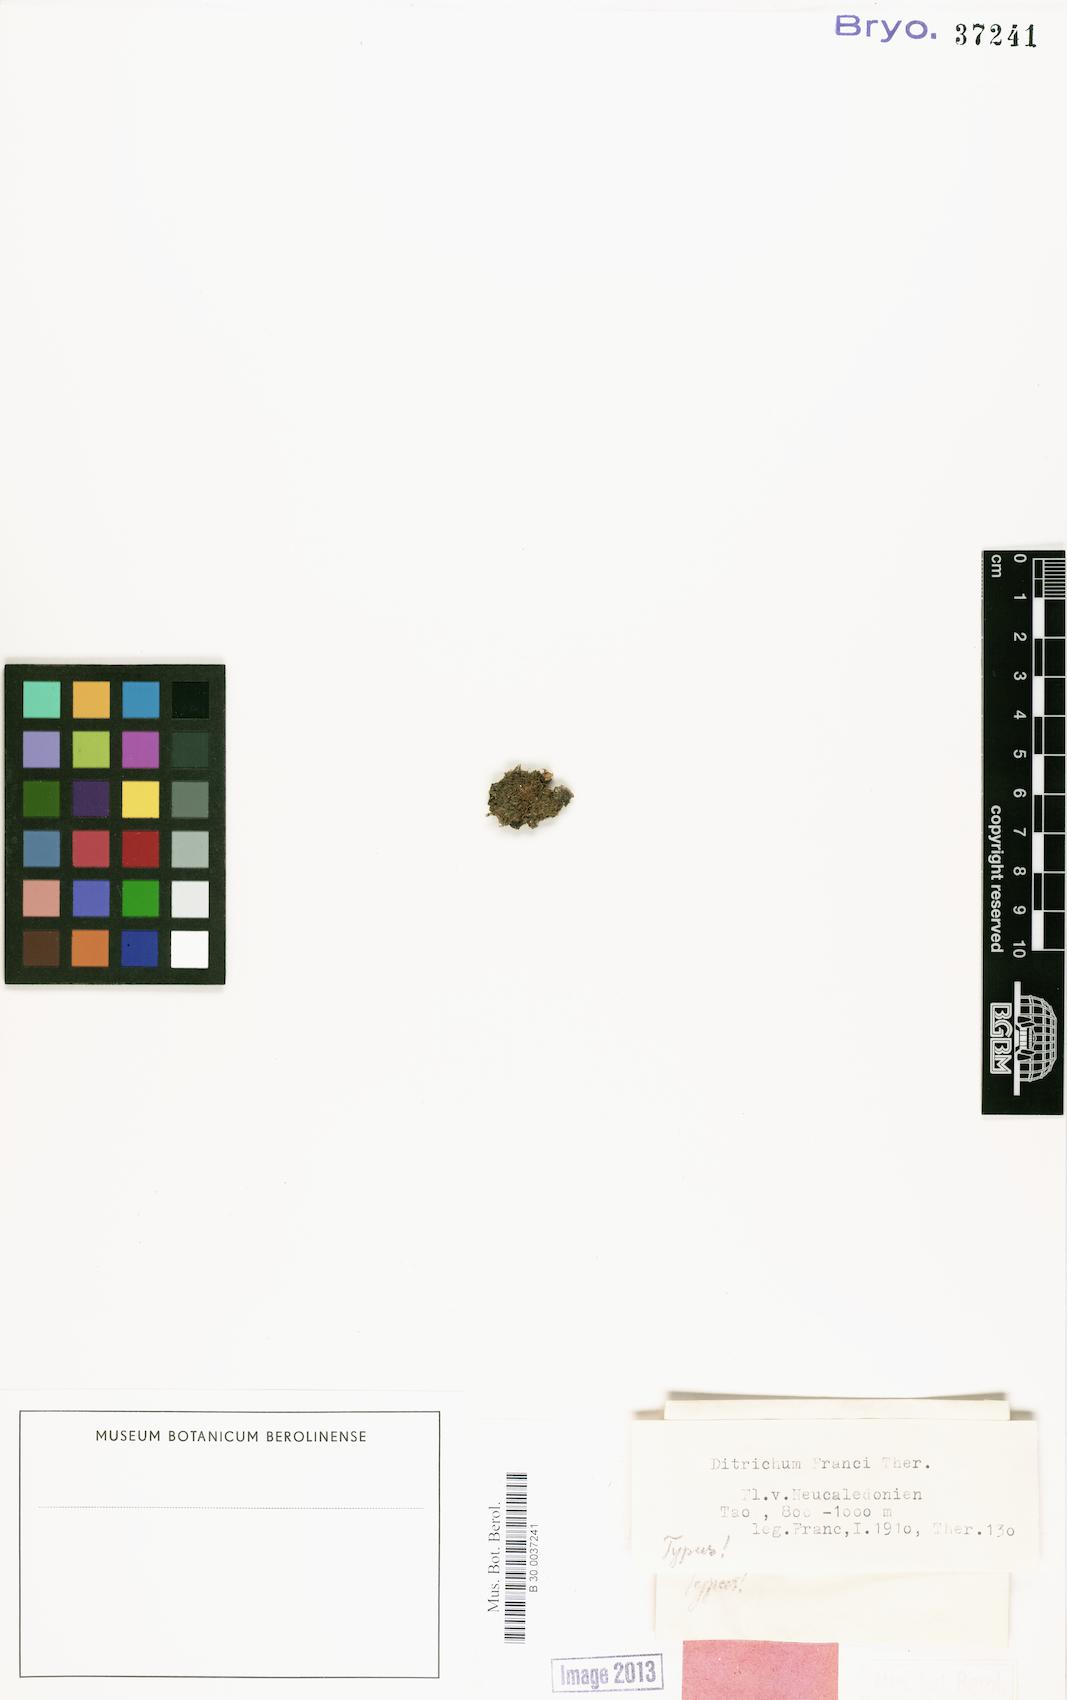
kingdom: Plantae
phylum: Bryophyta
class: Bryopsida
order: Dicranales
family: Ditrichaceae
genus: Ditrichum
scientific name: Ditrichum francii
